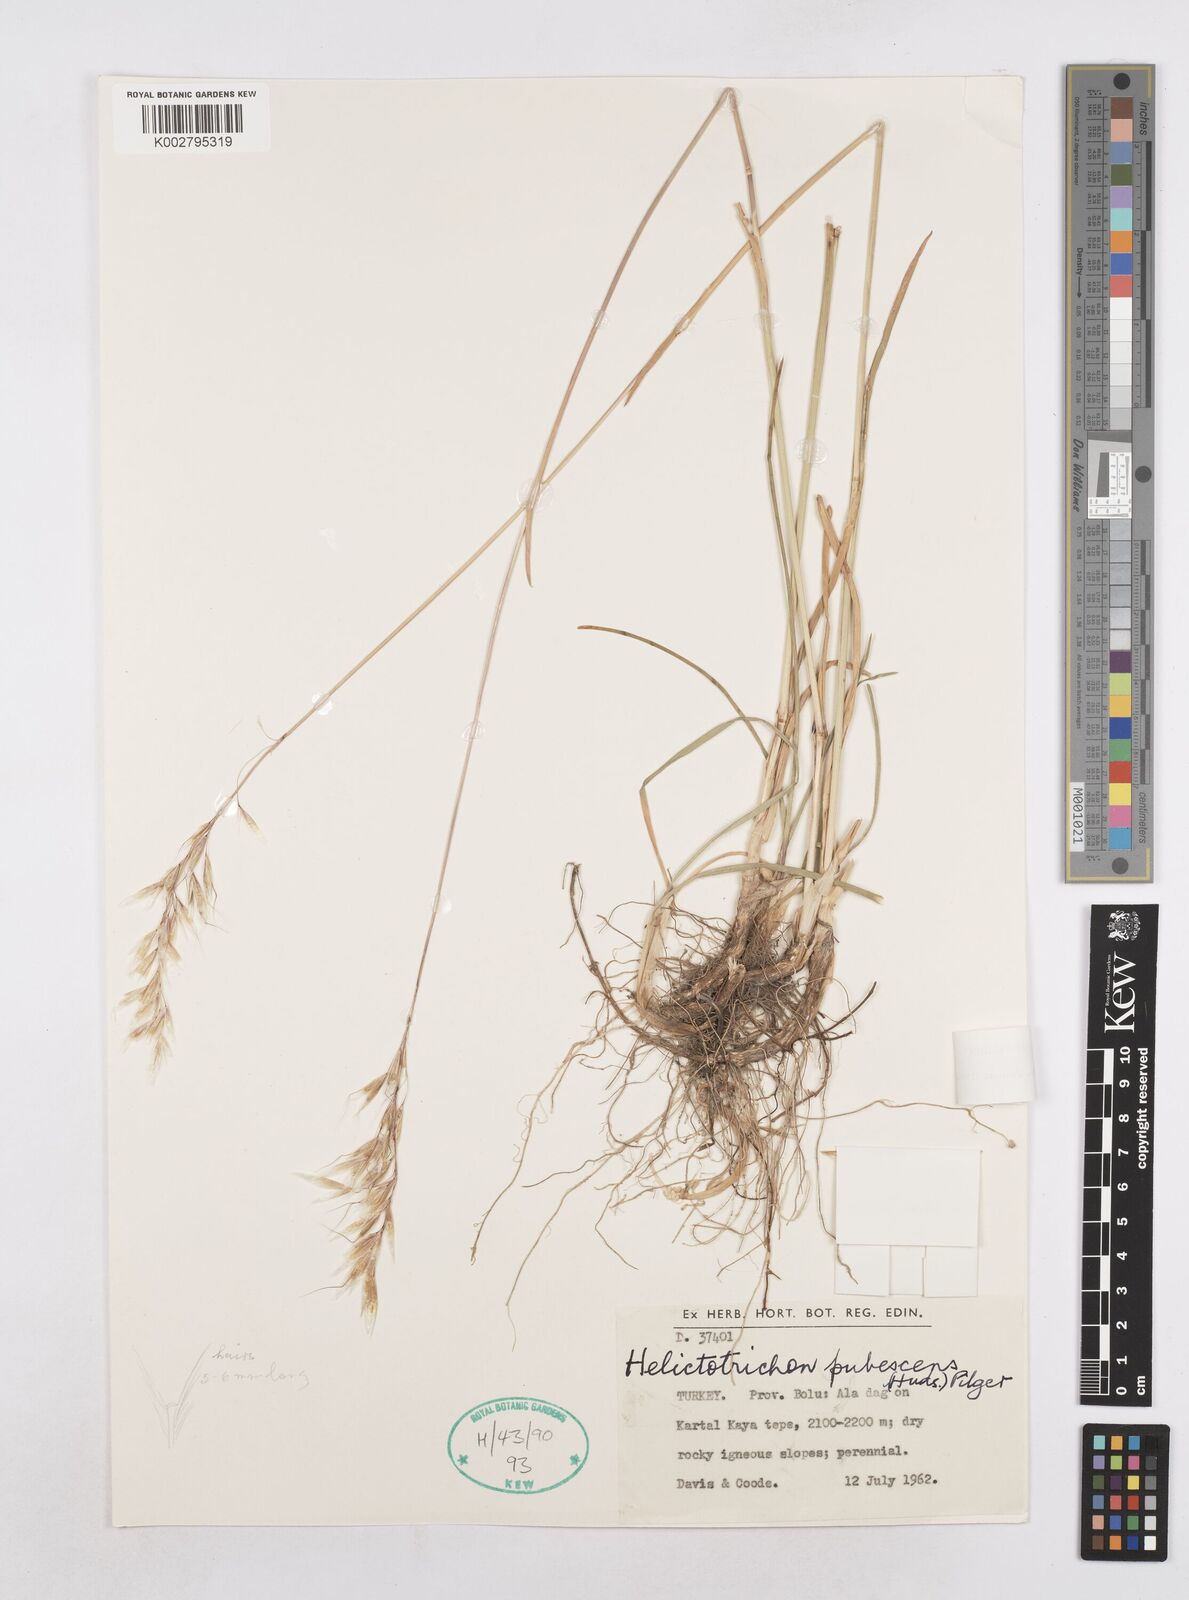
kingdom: Plantae
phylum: Tracheophyta
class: Liliopsida
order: Poales
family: Poaceae
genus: Avenula
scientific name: Avenula pubescens
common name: Downy alpine oatgrass
